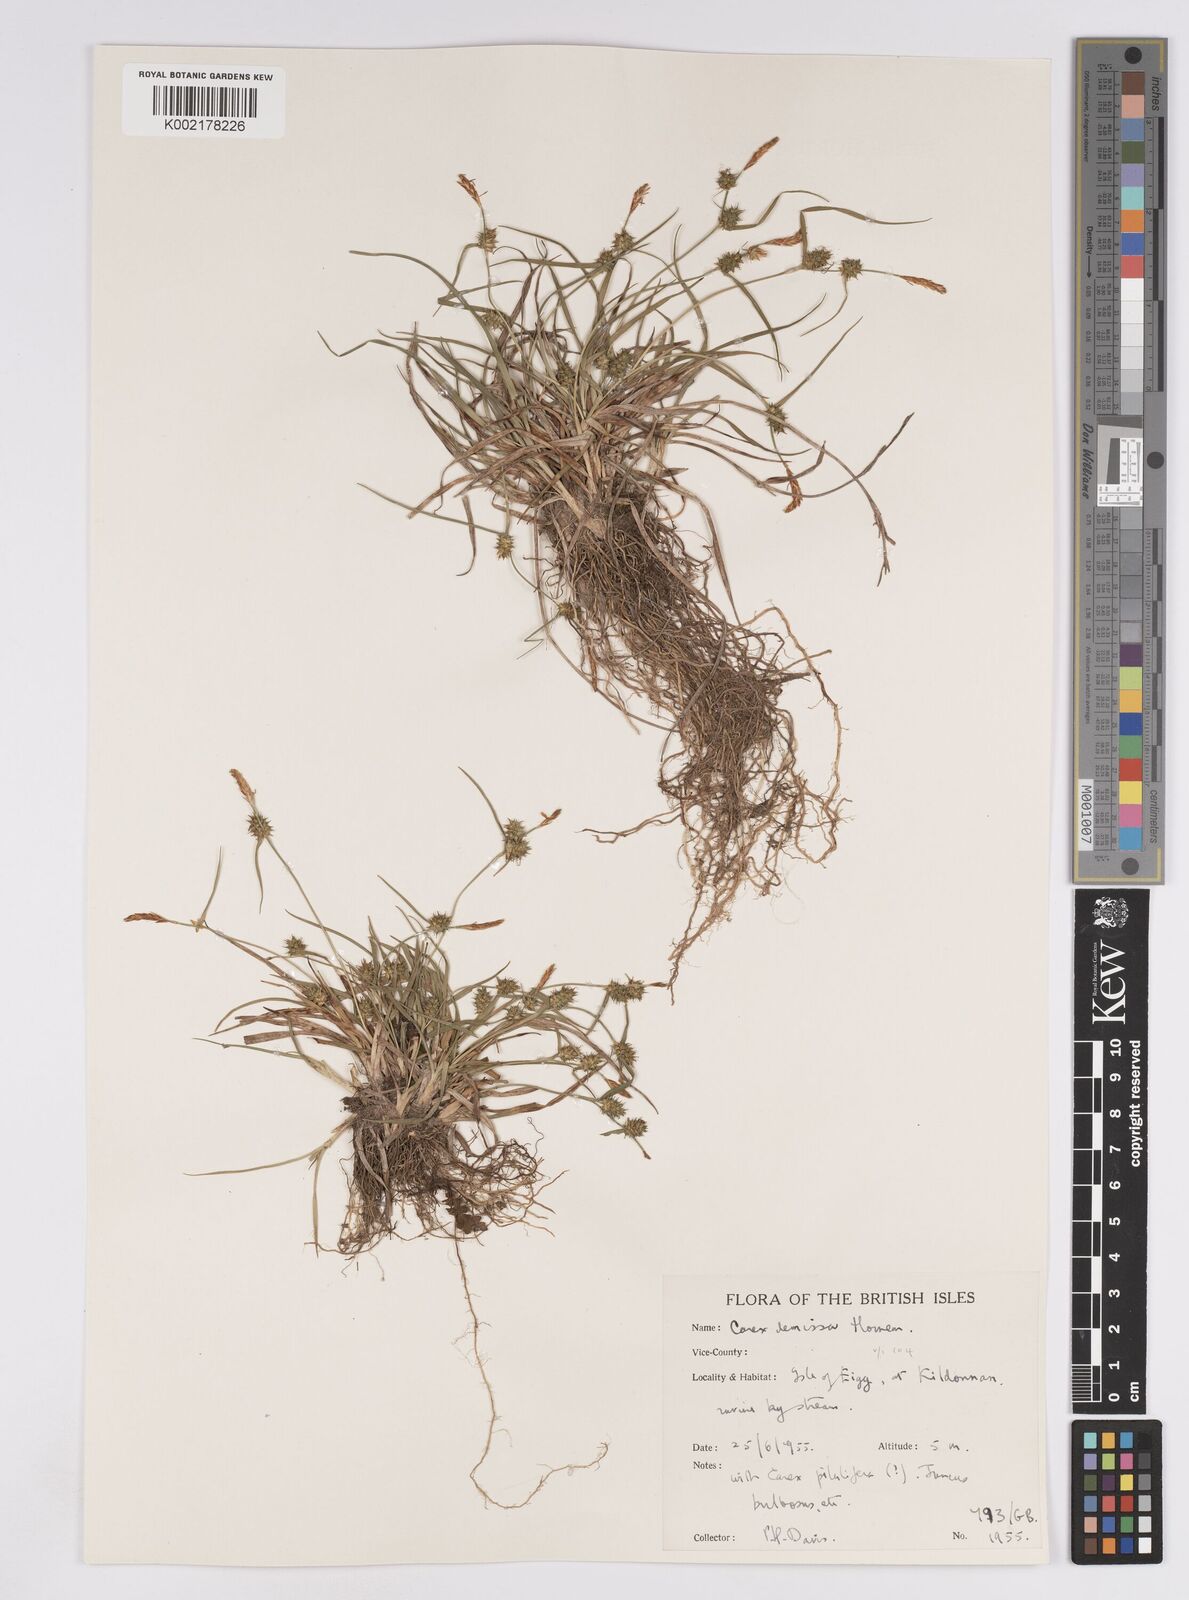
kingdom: Plantae
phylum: Tracheophyta
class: Liliopsida
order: Poales
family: Cyperaceae
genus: Carex
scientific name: Carex demissa
